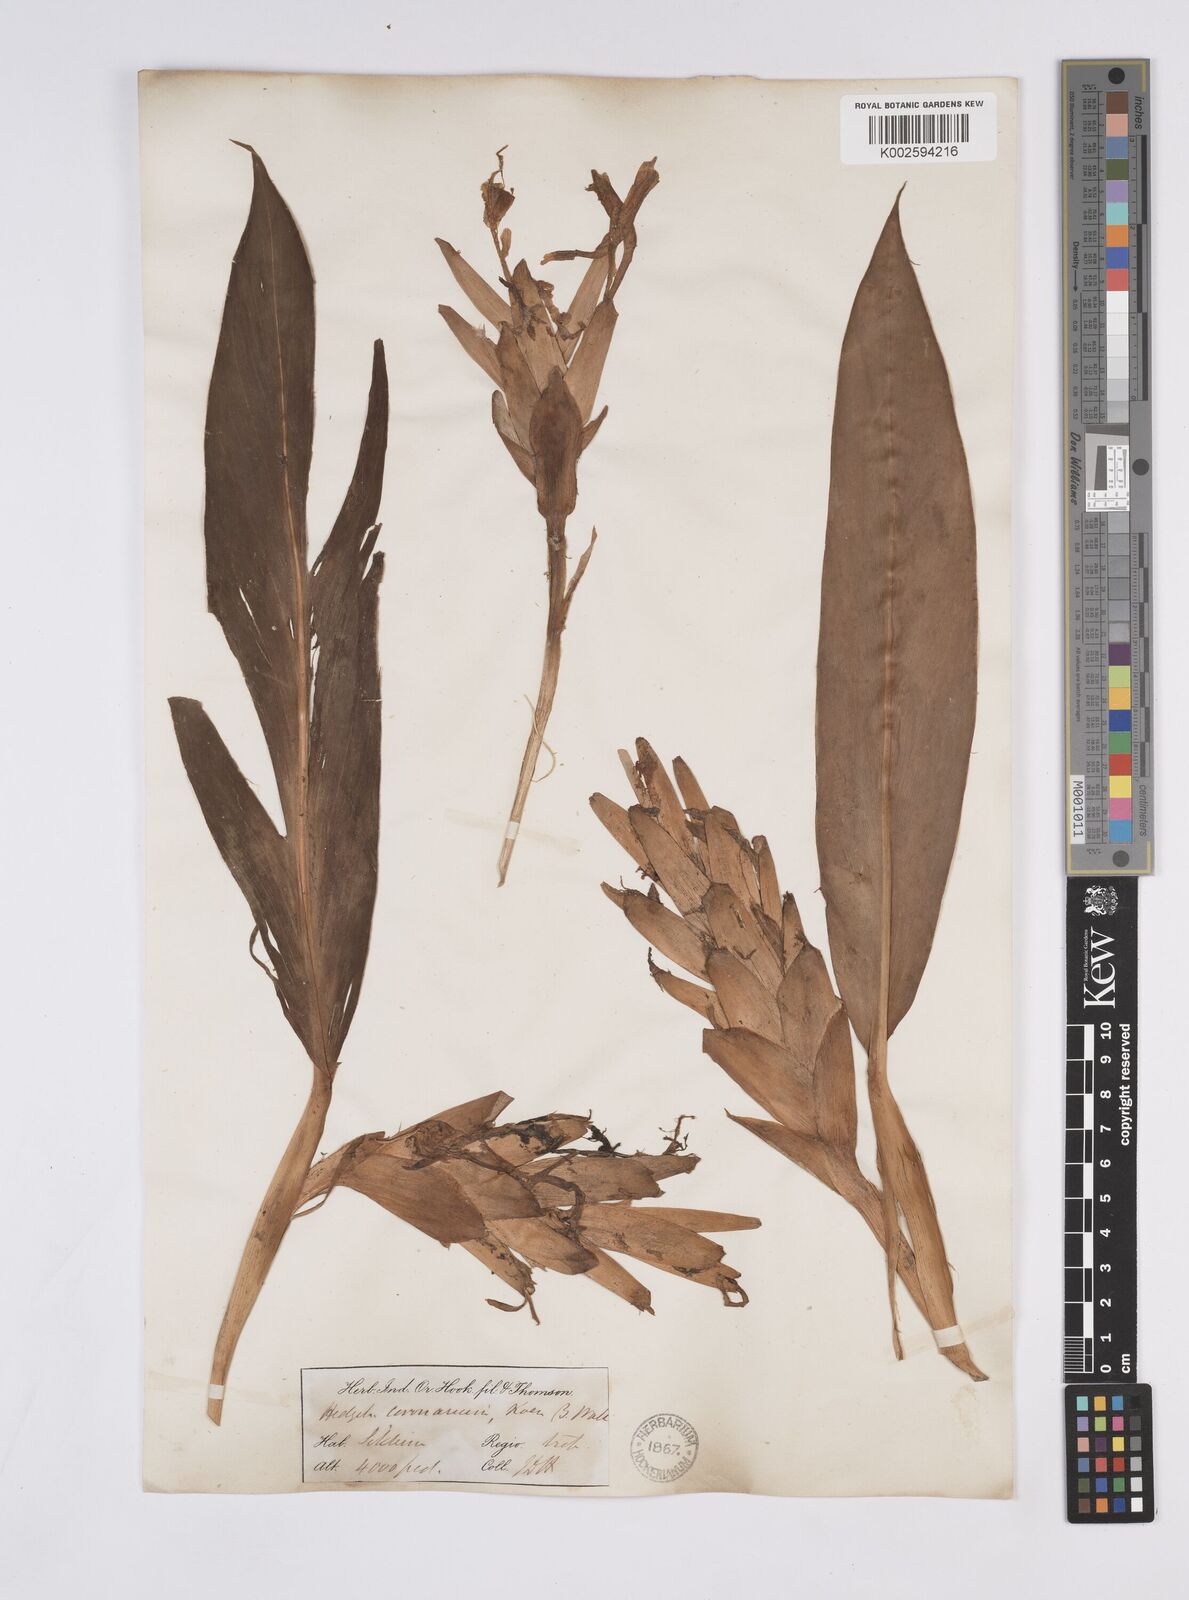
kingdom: Plantae
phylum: Tracheophyta
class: Liliopsida
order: Zingiberales
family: Zingiberaceae
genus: Hedychium
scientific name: Hedychium coronarium
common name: White garland-lily
